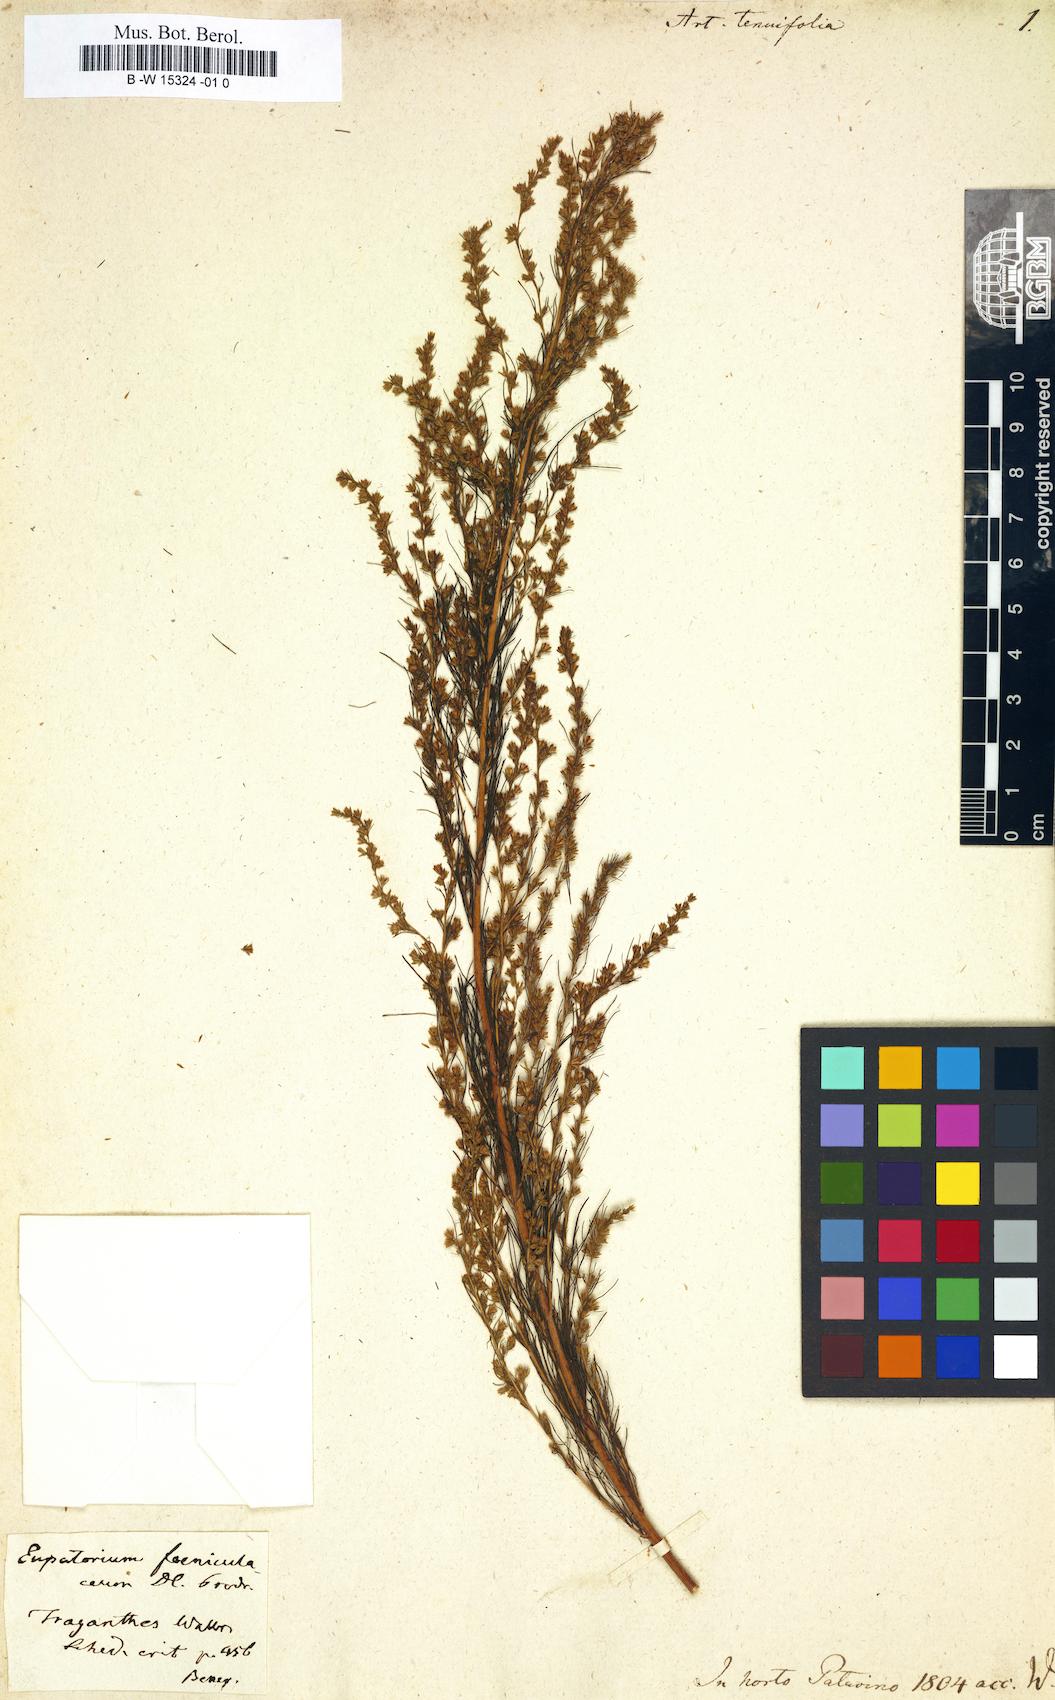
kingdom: Plantae
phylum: Tracheophyta
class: Magnoliopsida
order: Asterales
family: Asteraceae
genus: Artemisia
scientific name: Artemisia pubescens
